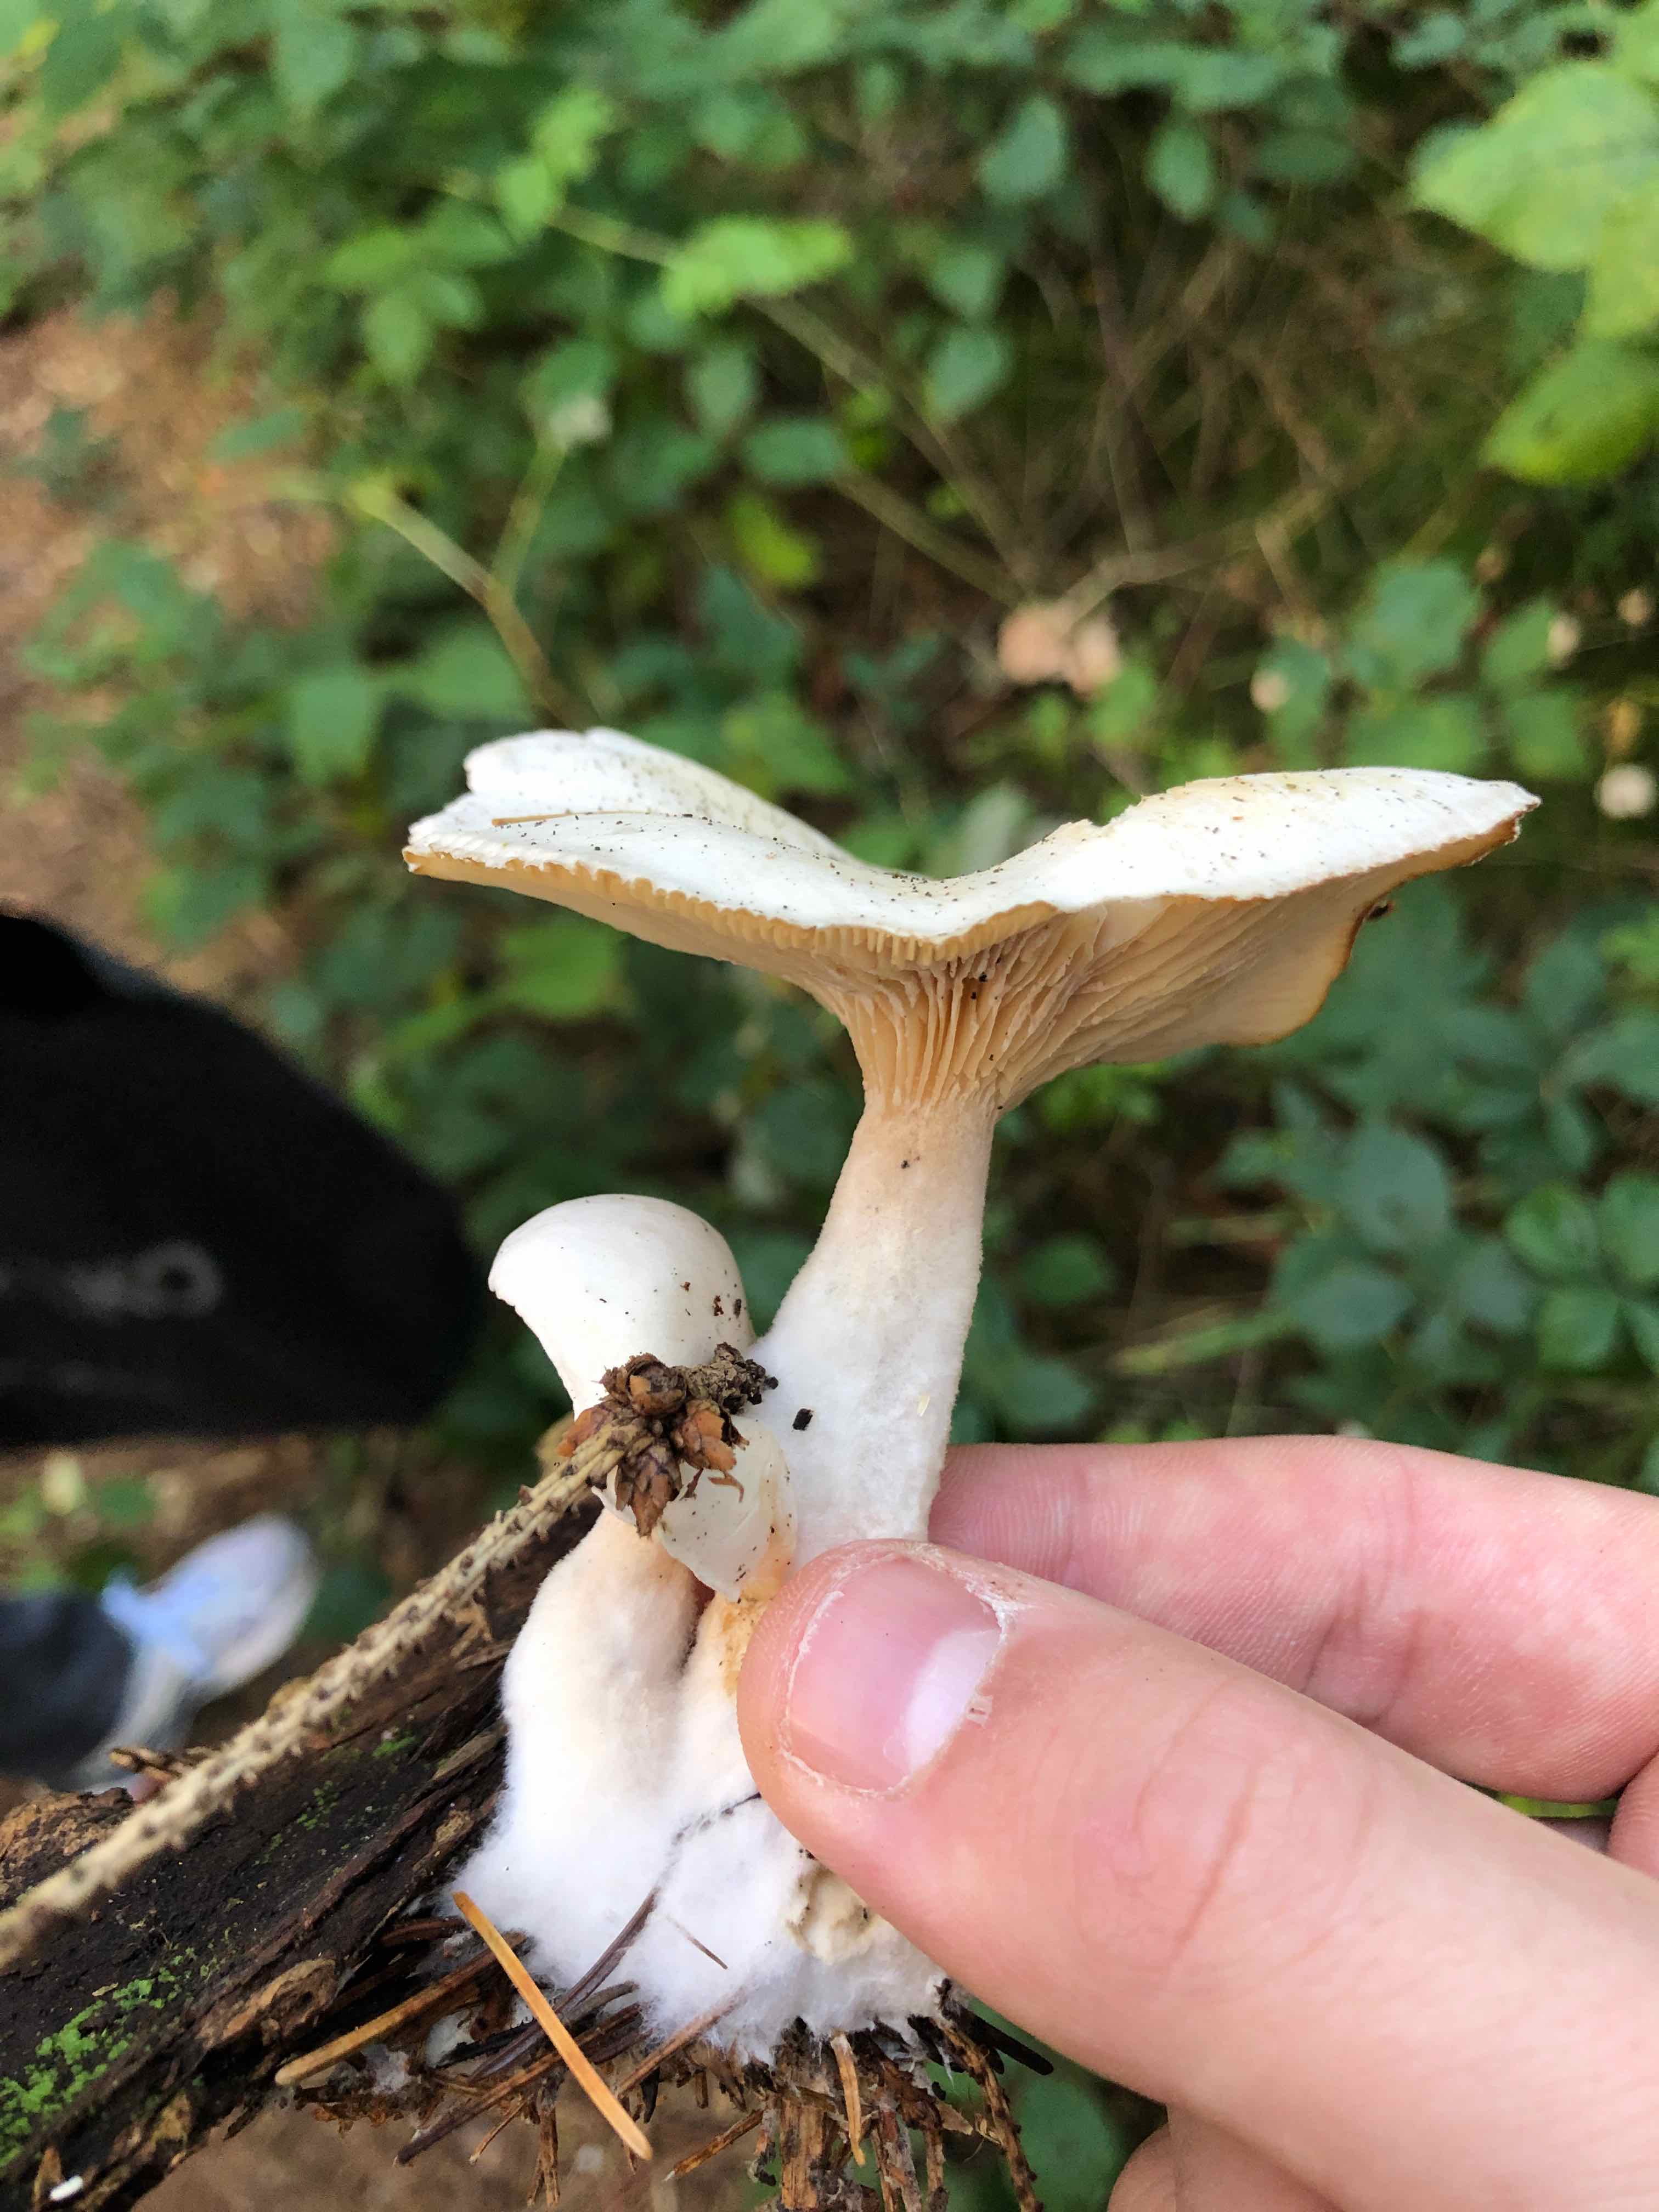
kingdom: Fungi
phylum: Basidiomycota
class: Agaricomycetes
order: Agaricales
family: Entolomataceae
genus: Clitopilus
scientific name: Clitopilus prunulus
